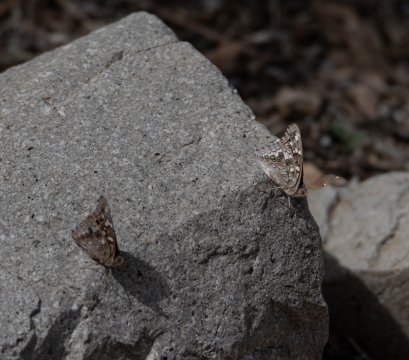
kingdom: Animalia
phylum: Arthropoda
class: Insecta
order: Lepidoptera
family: Nymphalidae
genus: Asterocampa
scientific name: Asterocampa leilia
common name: Empress Leilia
